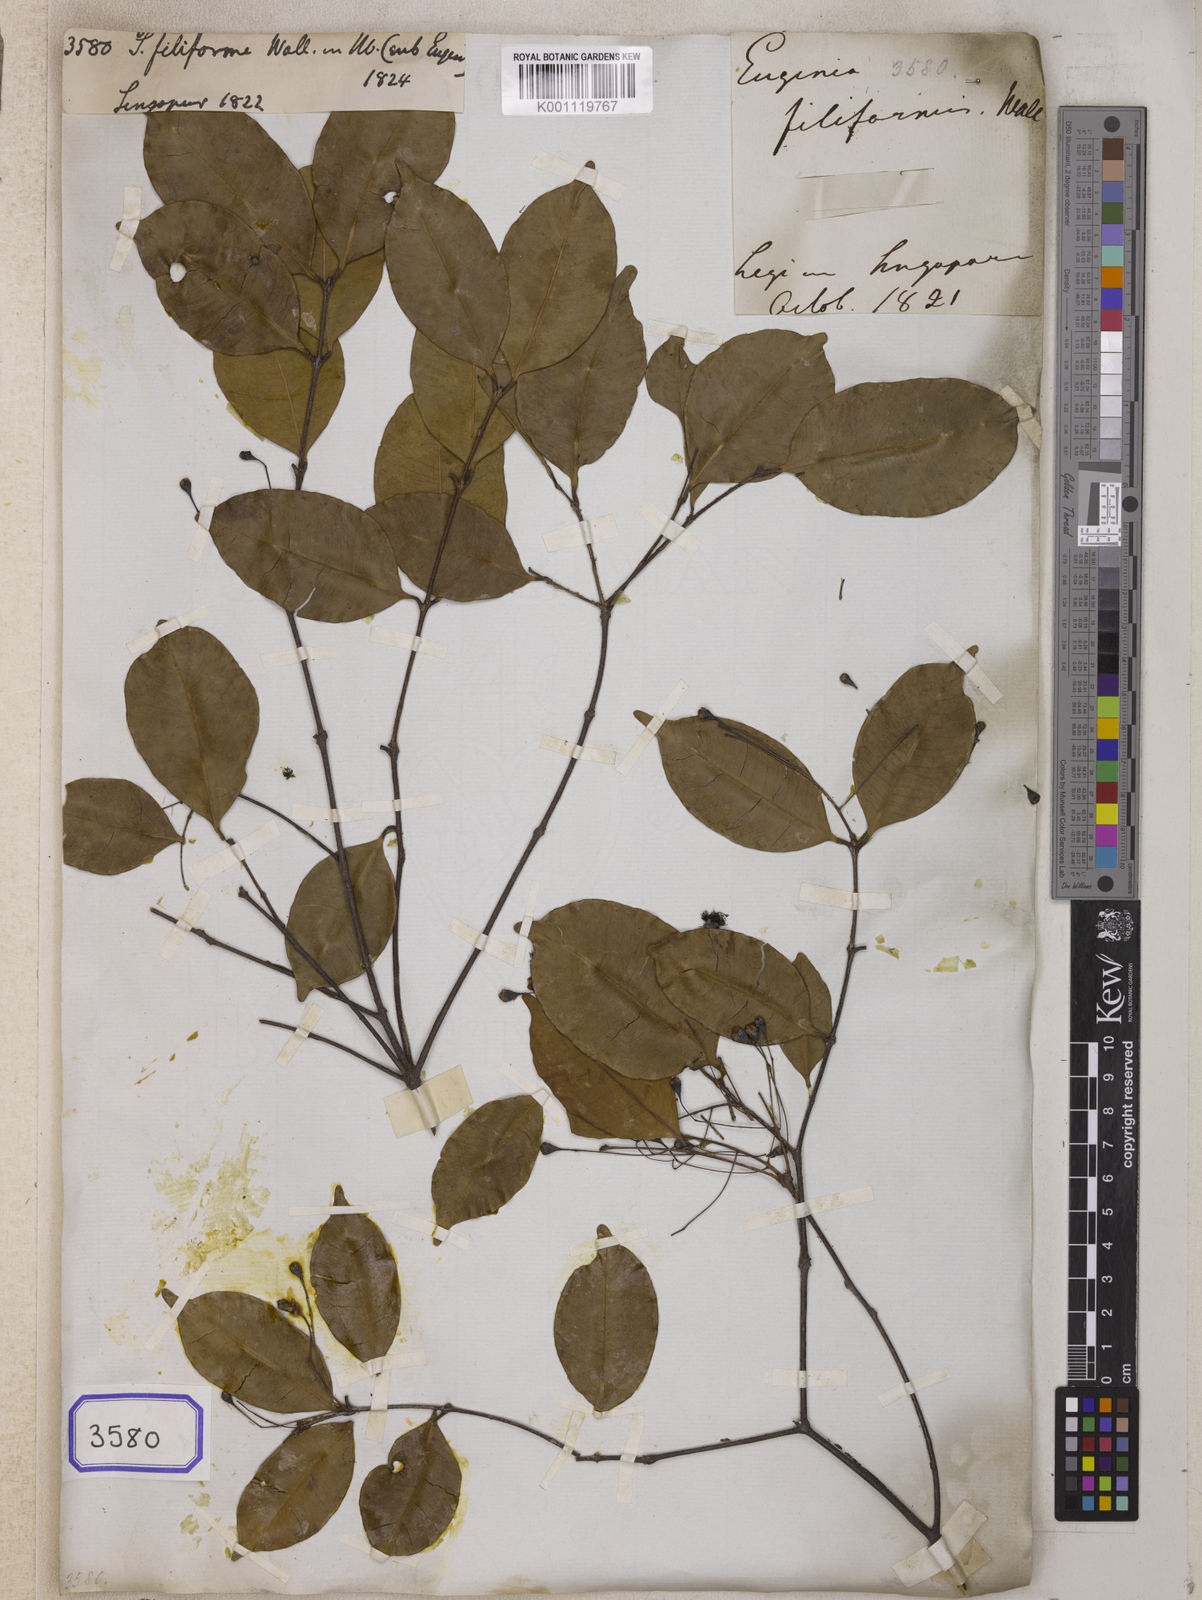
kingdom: Plantae
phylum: Tracheophyta
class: Magnoliopsida
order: Myrtales
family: Myrtaceae
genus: Syzygium
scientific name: Syzygium
